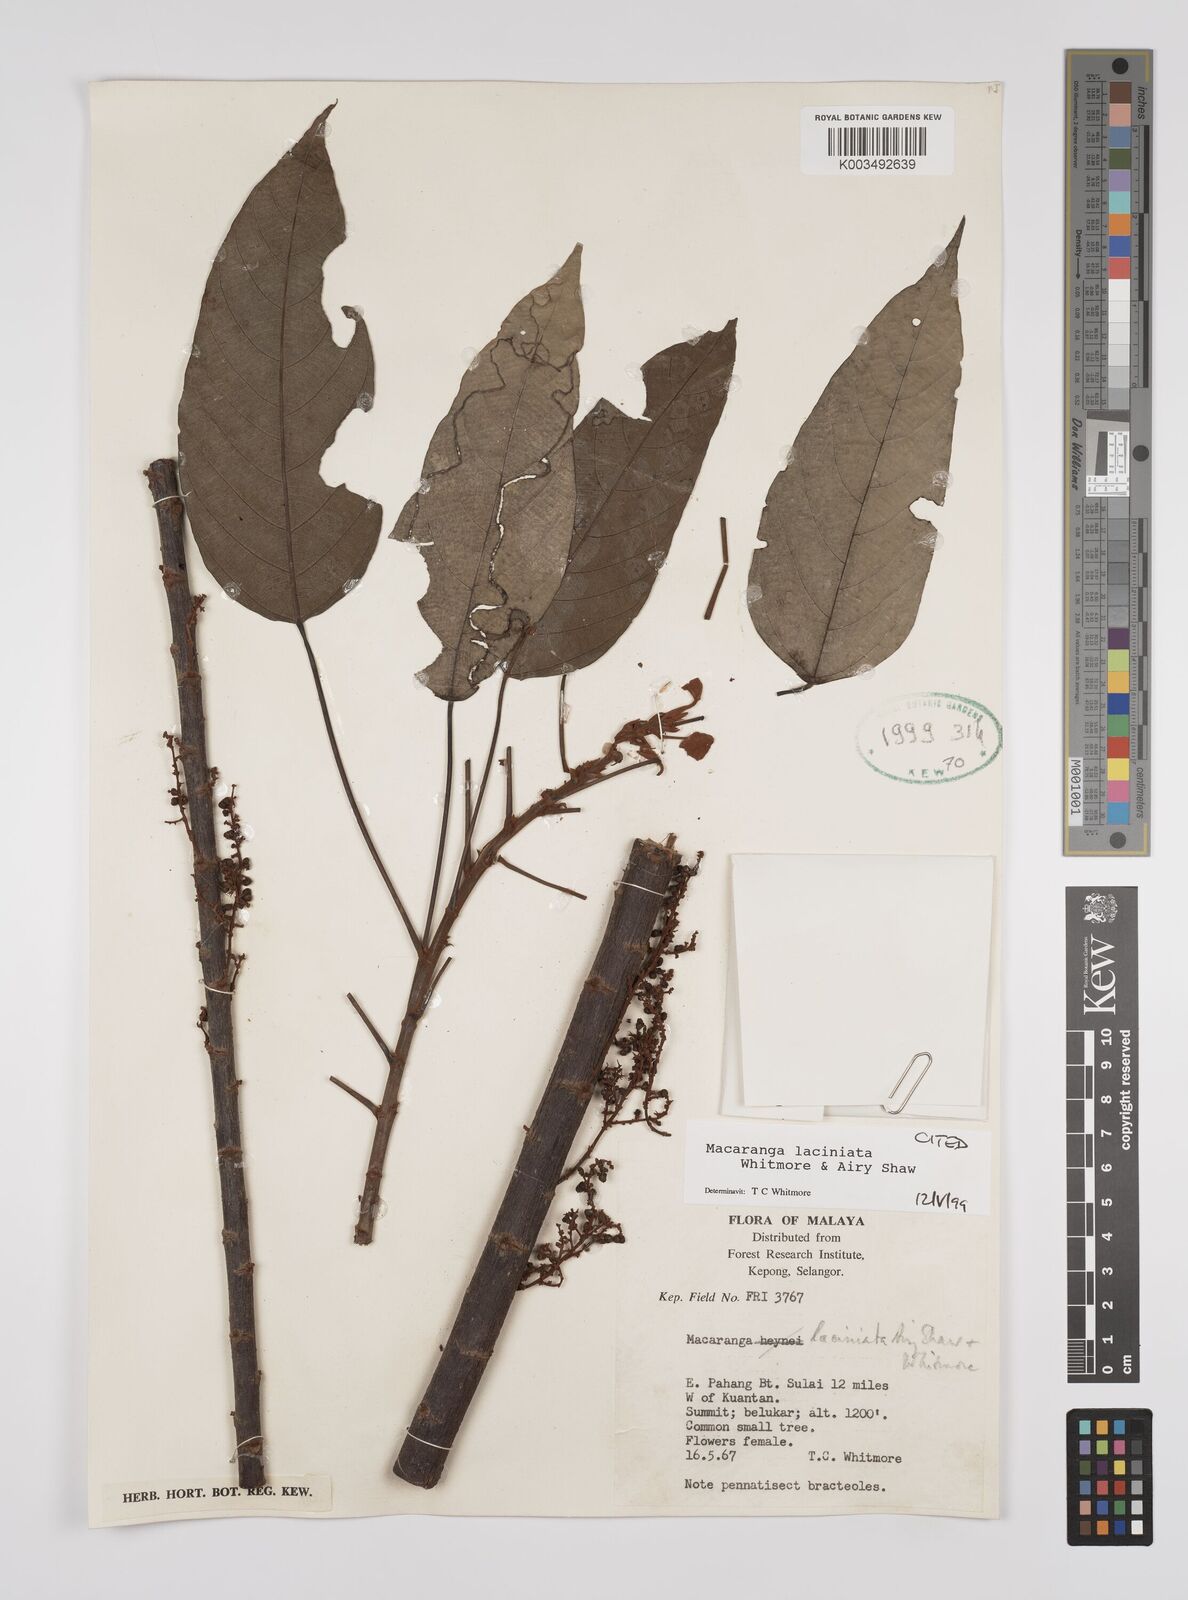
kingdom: Plantae
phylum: Tracheophyta
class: Magnoliopsida
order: Malpighiales
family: Euphorbiaceae
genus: Macaranga
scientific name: Macaranga laciniata
